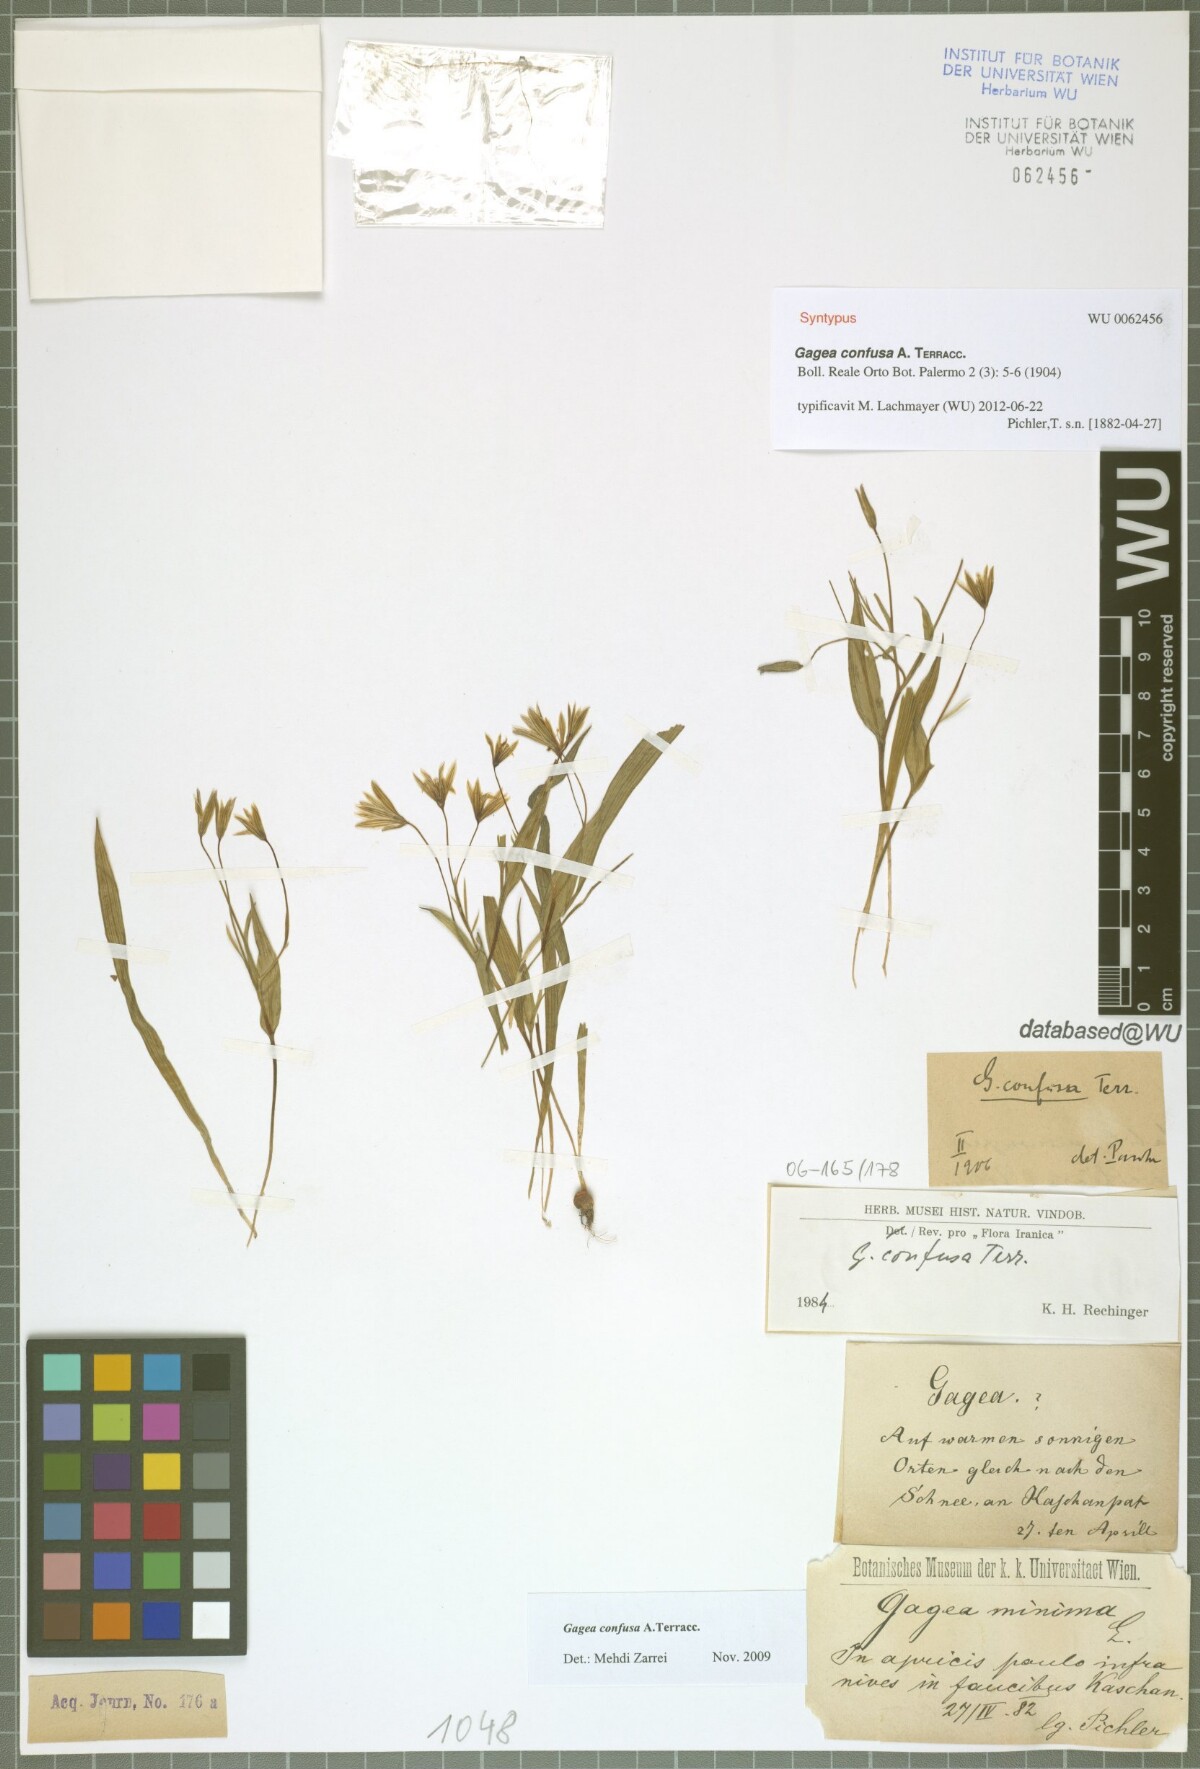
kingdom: Plantae
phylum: Tracheophyta
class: Liliopsida
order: Liliales
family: Liliaceae
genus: Gagea
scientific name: Gagea confusa
